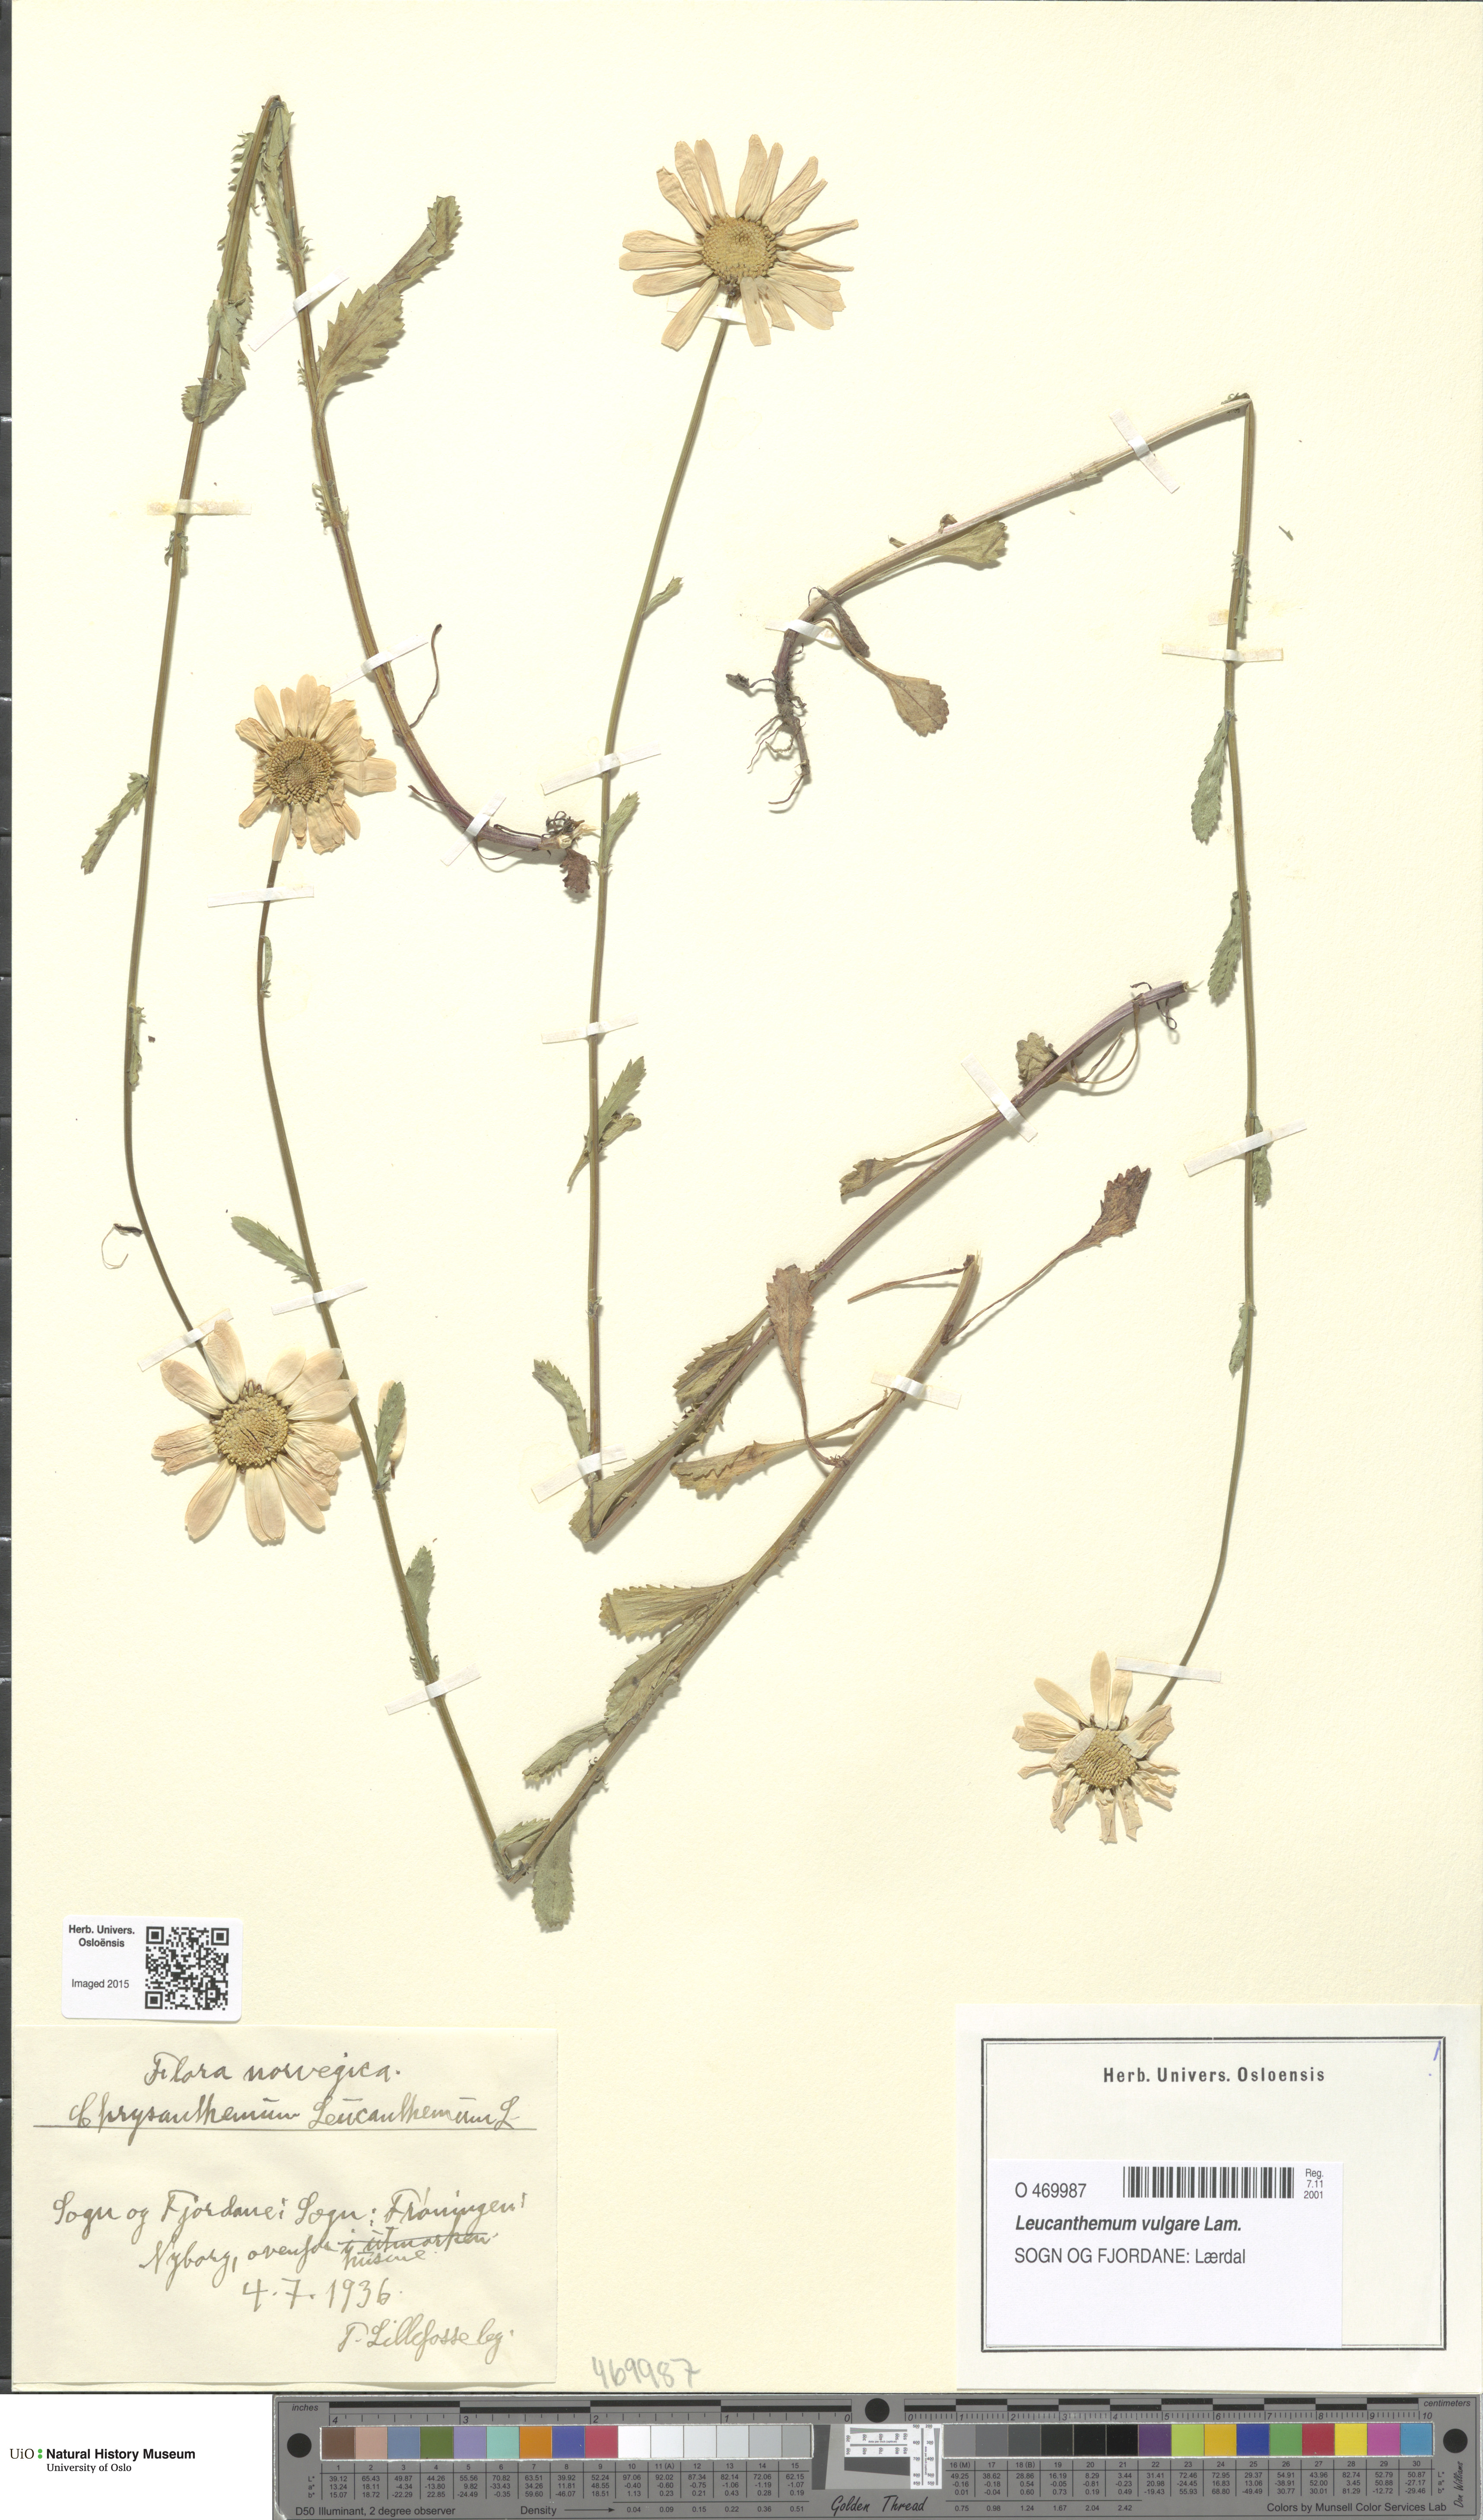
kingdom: Plantae
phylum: Tracheophyta
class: Magnoliopsida
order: Asterales
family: Asteraceae
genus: Leucanthemum
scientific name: Leucanthemum vulgare
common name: Oxeye daisy
